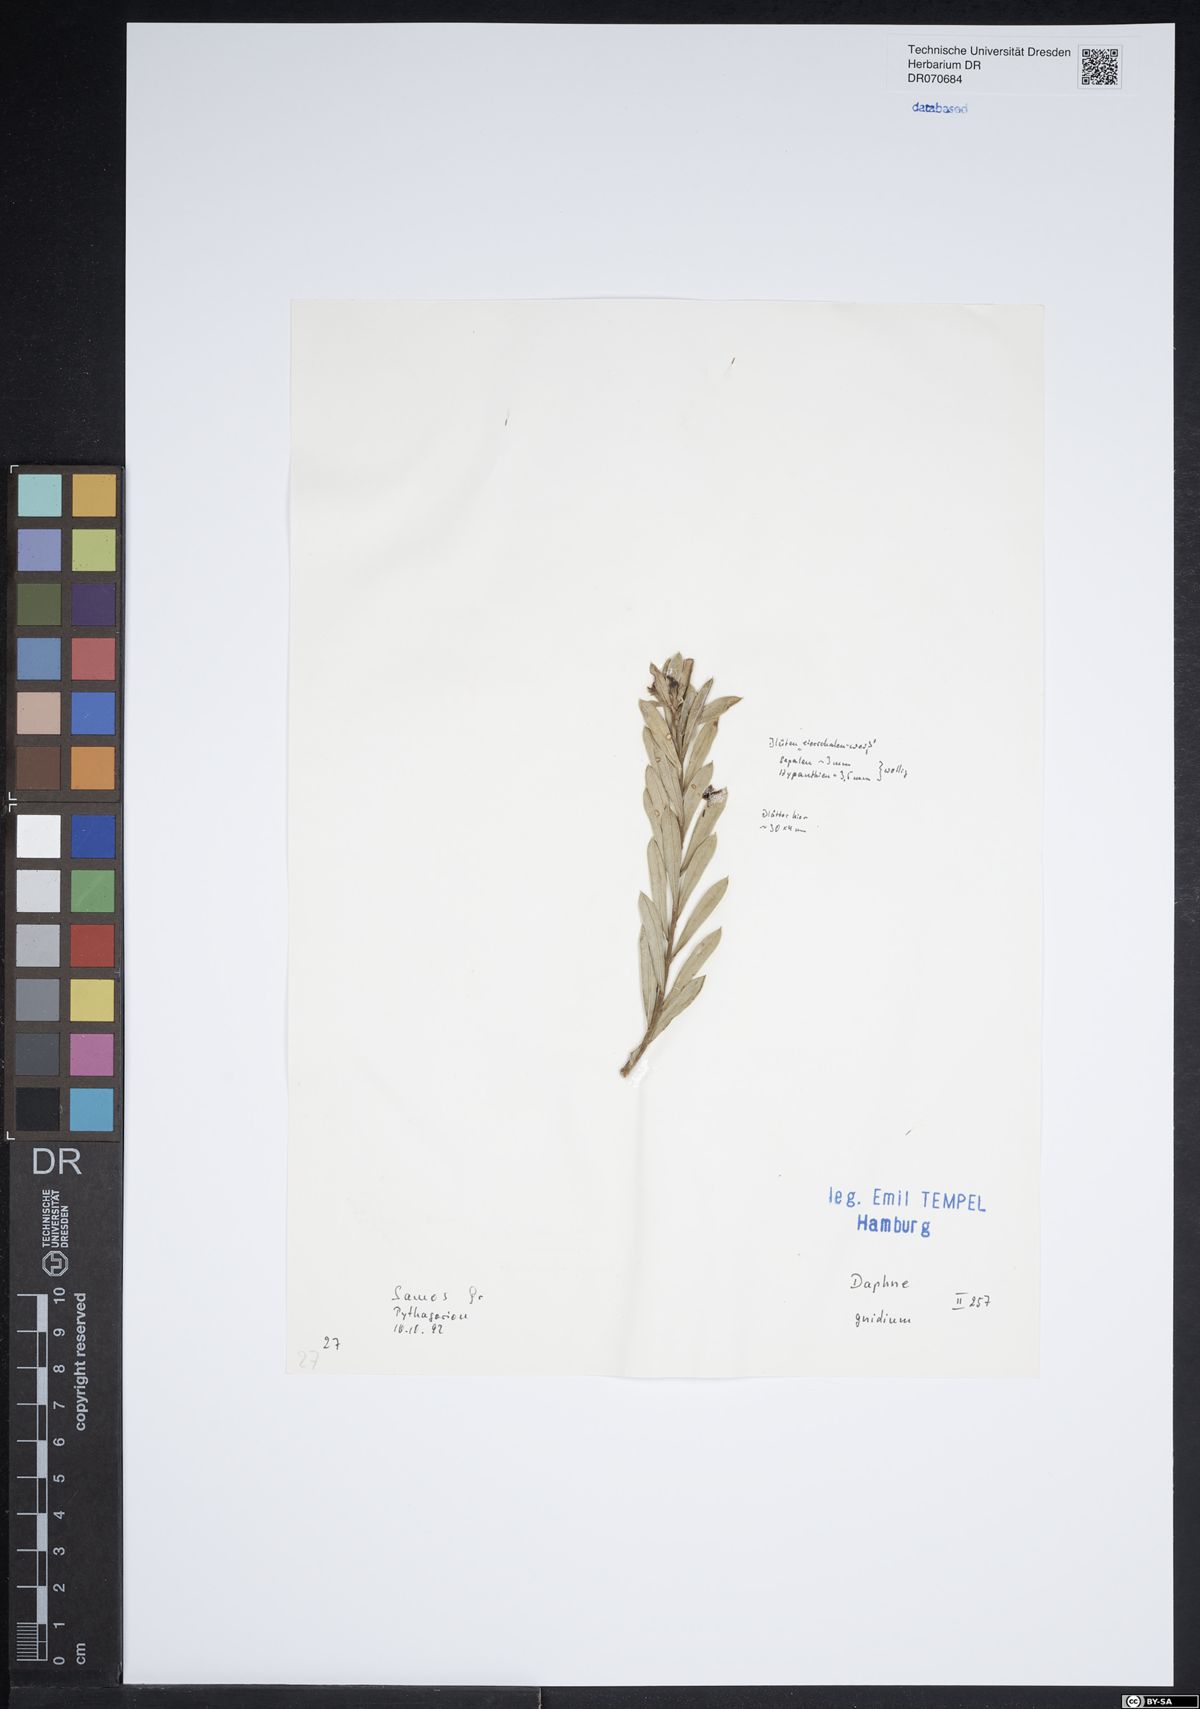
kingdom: Plantae
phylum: Tracheophyta
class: Magnoliopsida
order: Malvales
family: Thymelaeaceae
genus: Daphne
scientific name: Daphne gnidium
